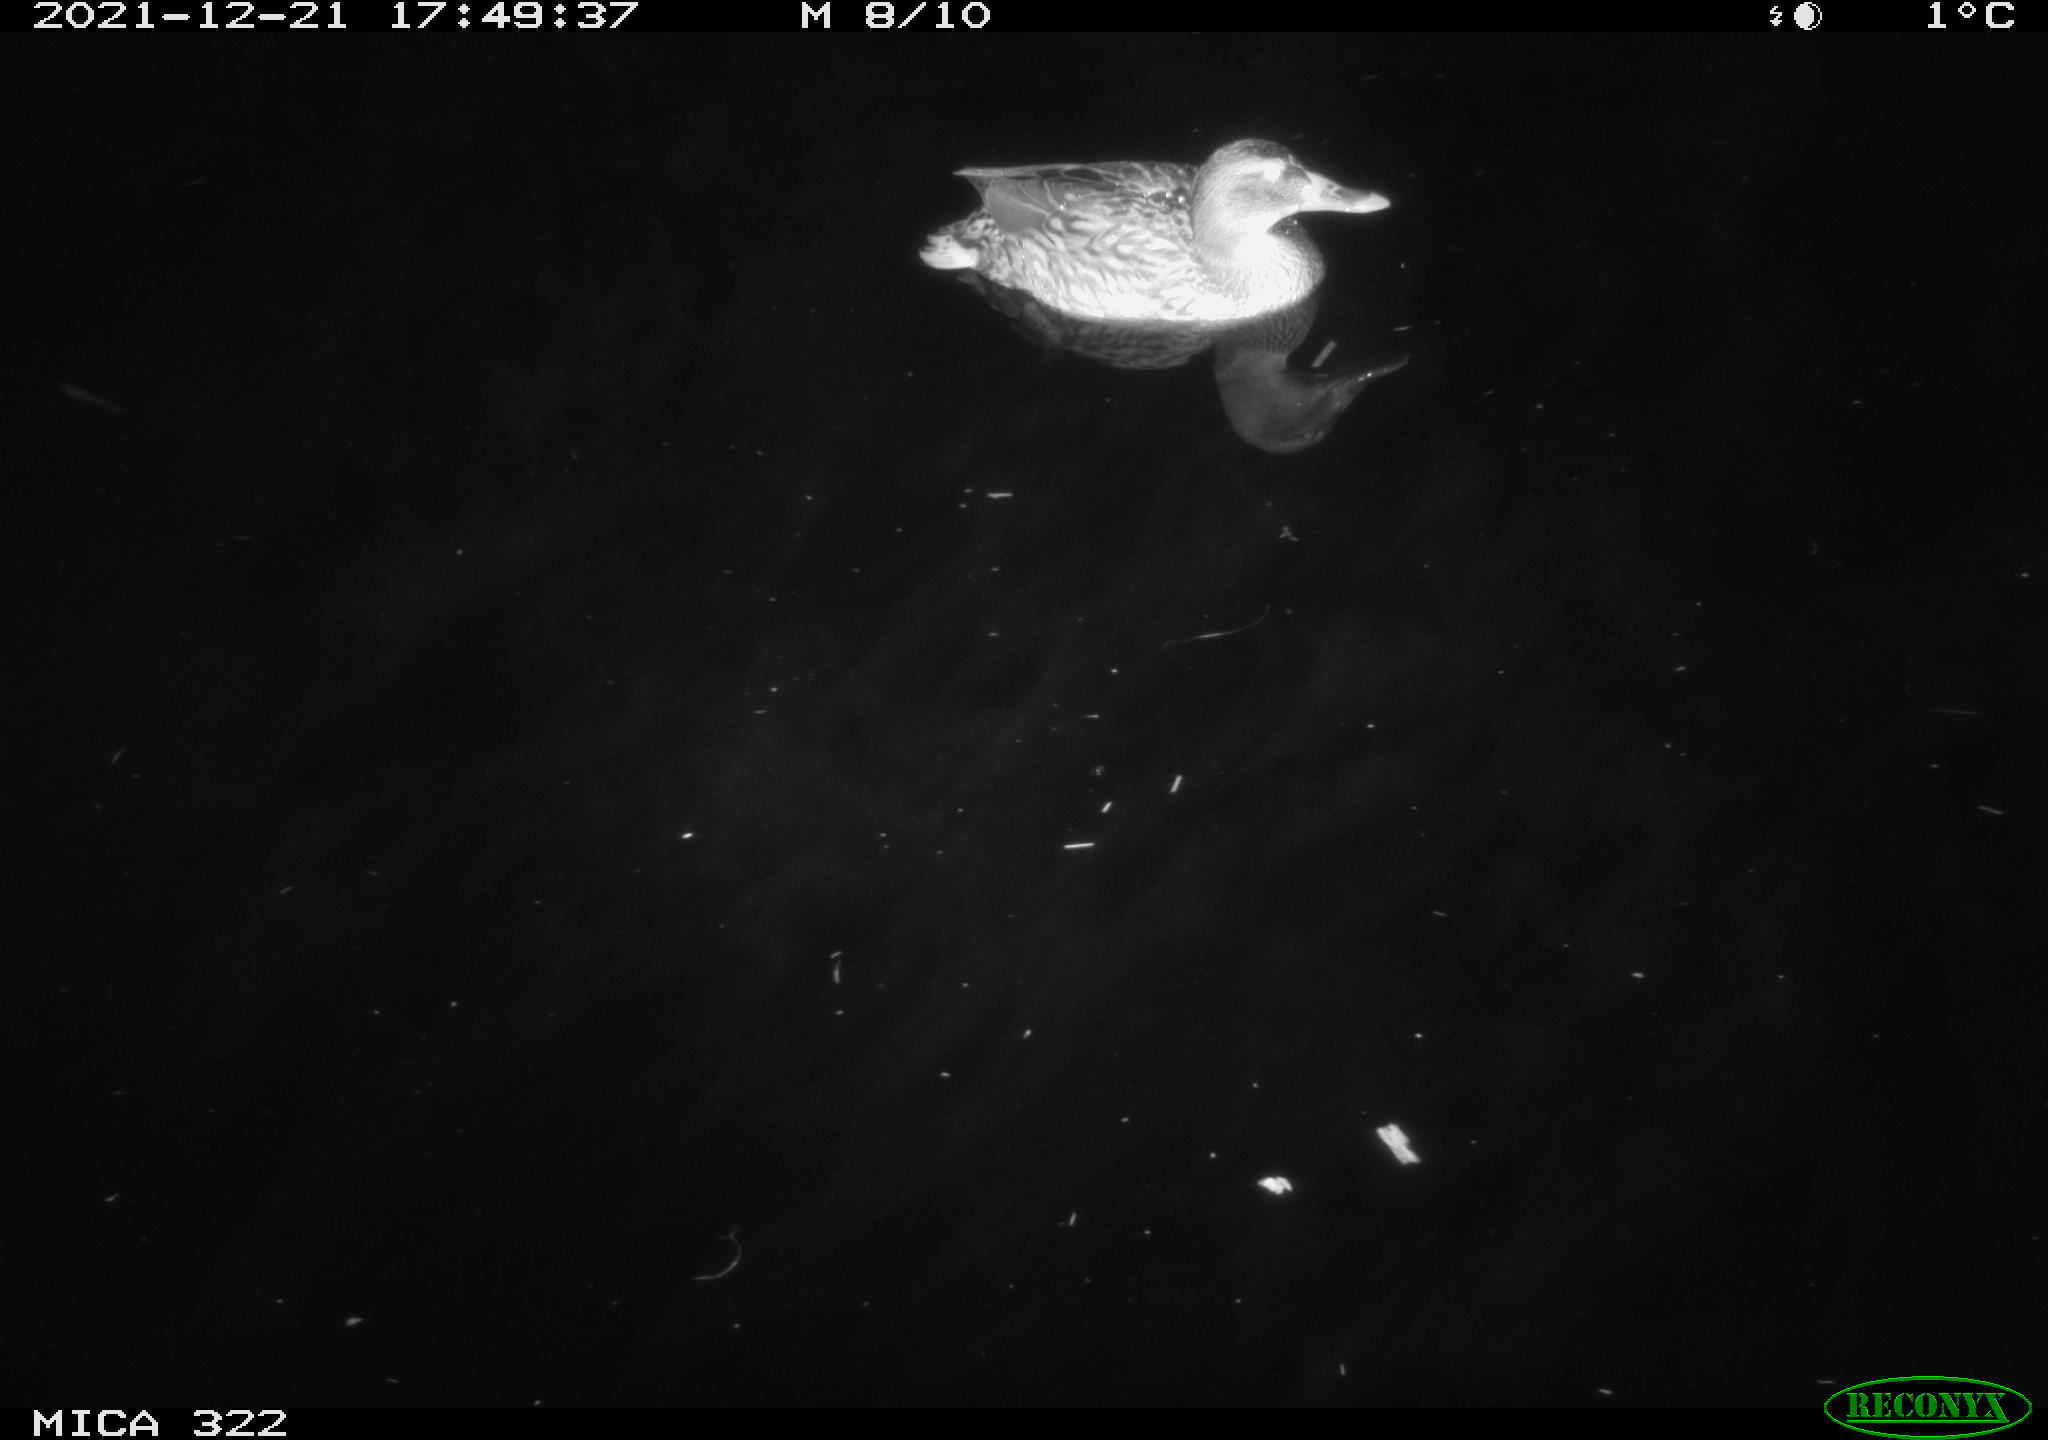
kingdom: Animalia
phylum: Chordata
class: Aves
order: Anseriformes
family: Anatidae
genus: Anas
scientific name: Anas
